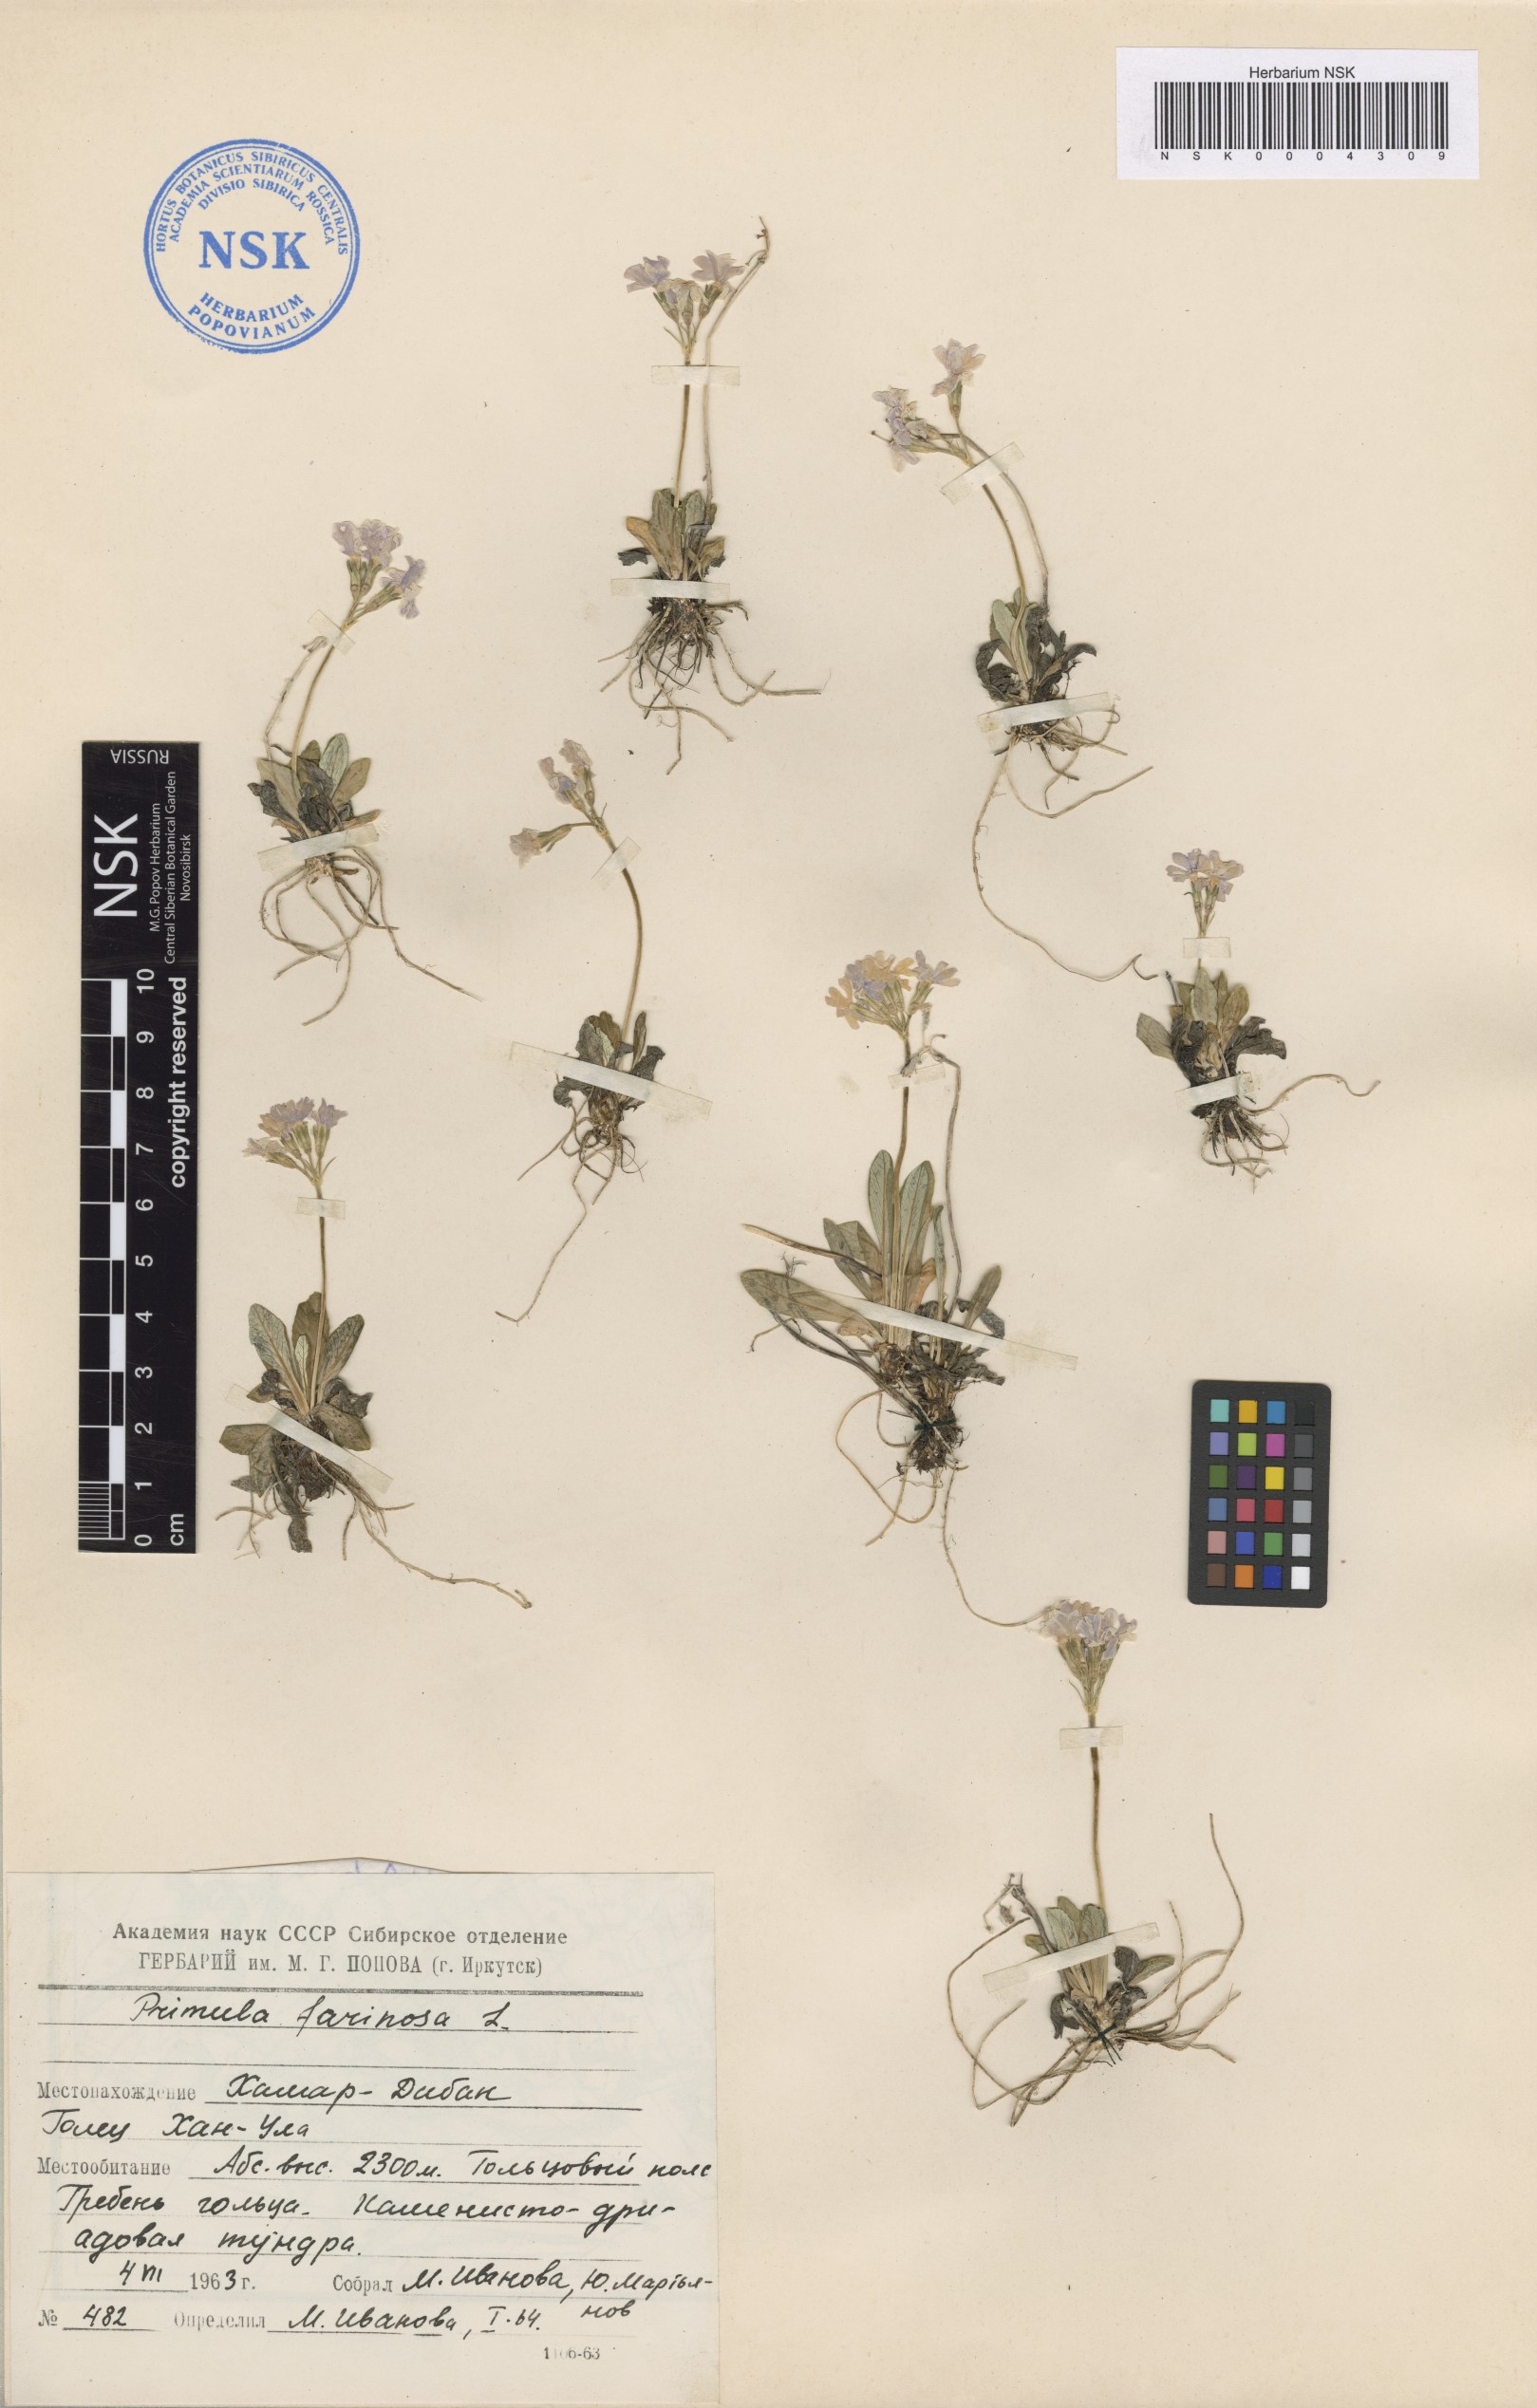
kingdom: Plantae
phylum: Tracheophyta
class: Magnoliopsida
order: Ericales
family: Primulaceae
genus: Primula
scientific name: Primula farinosa
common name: Bird's-eye primrose
